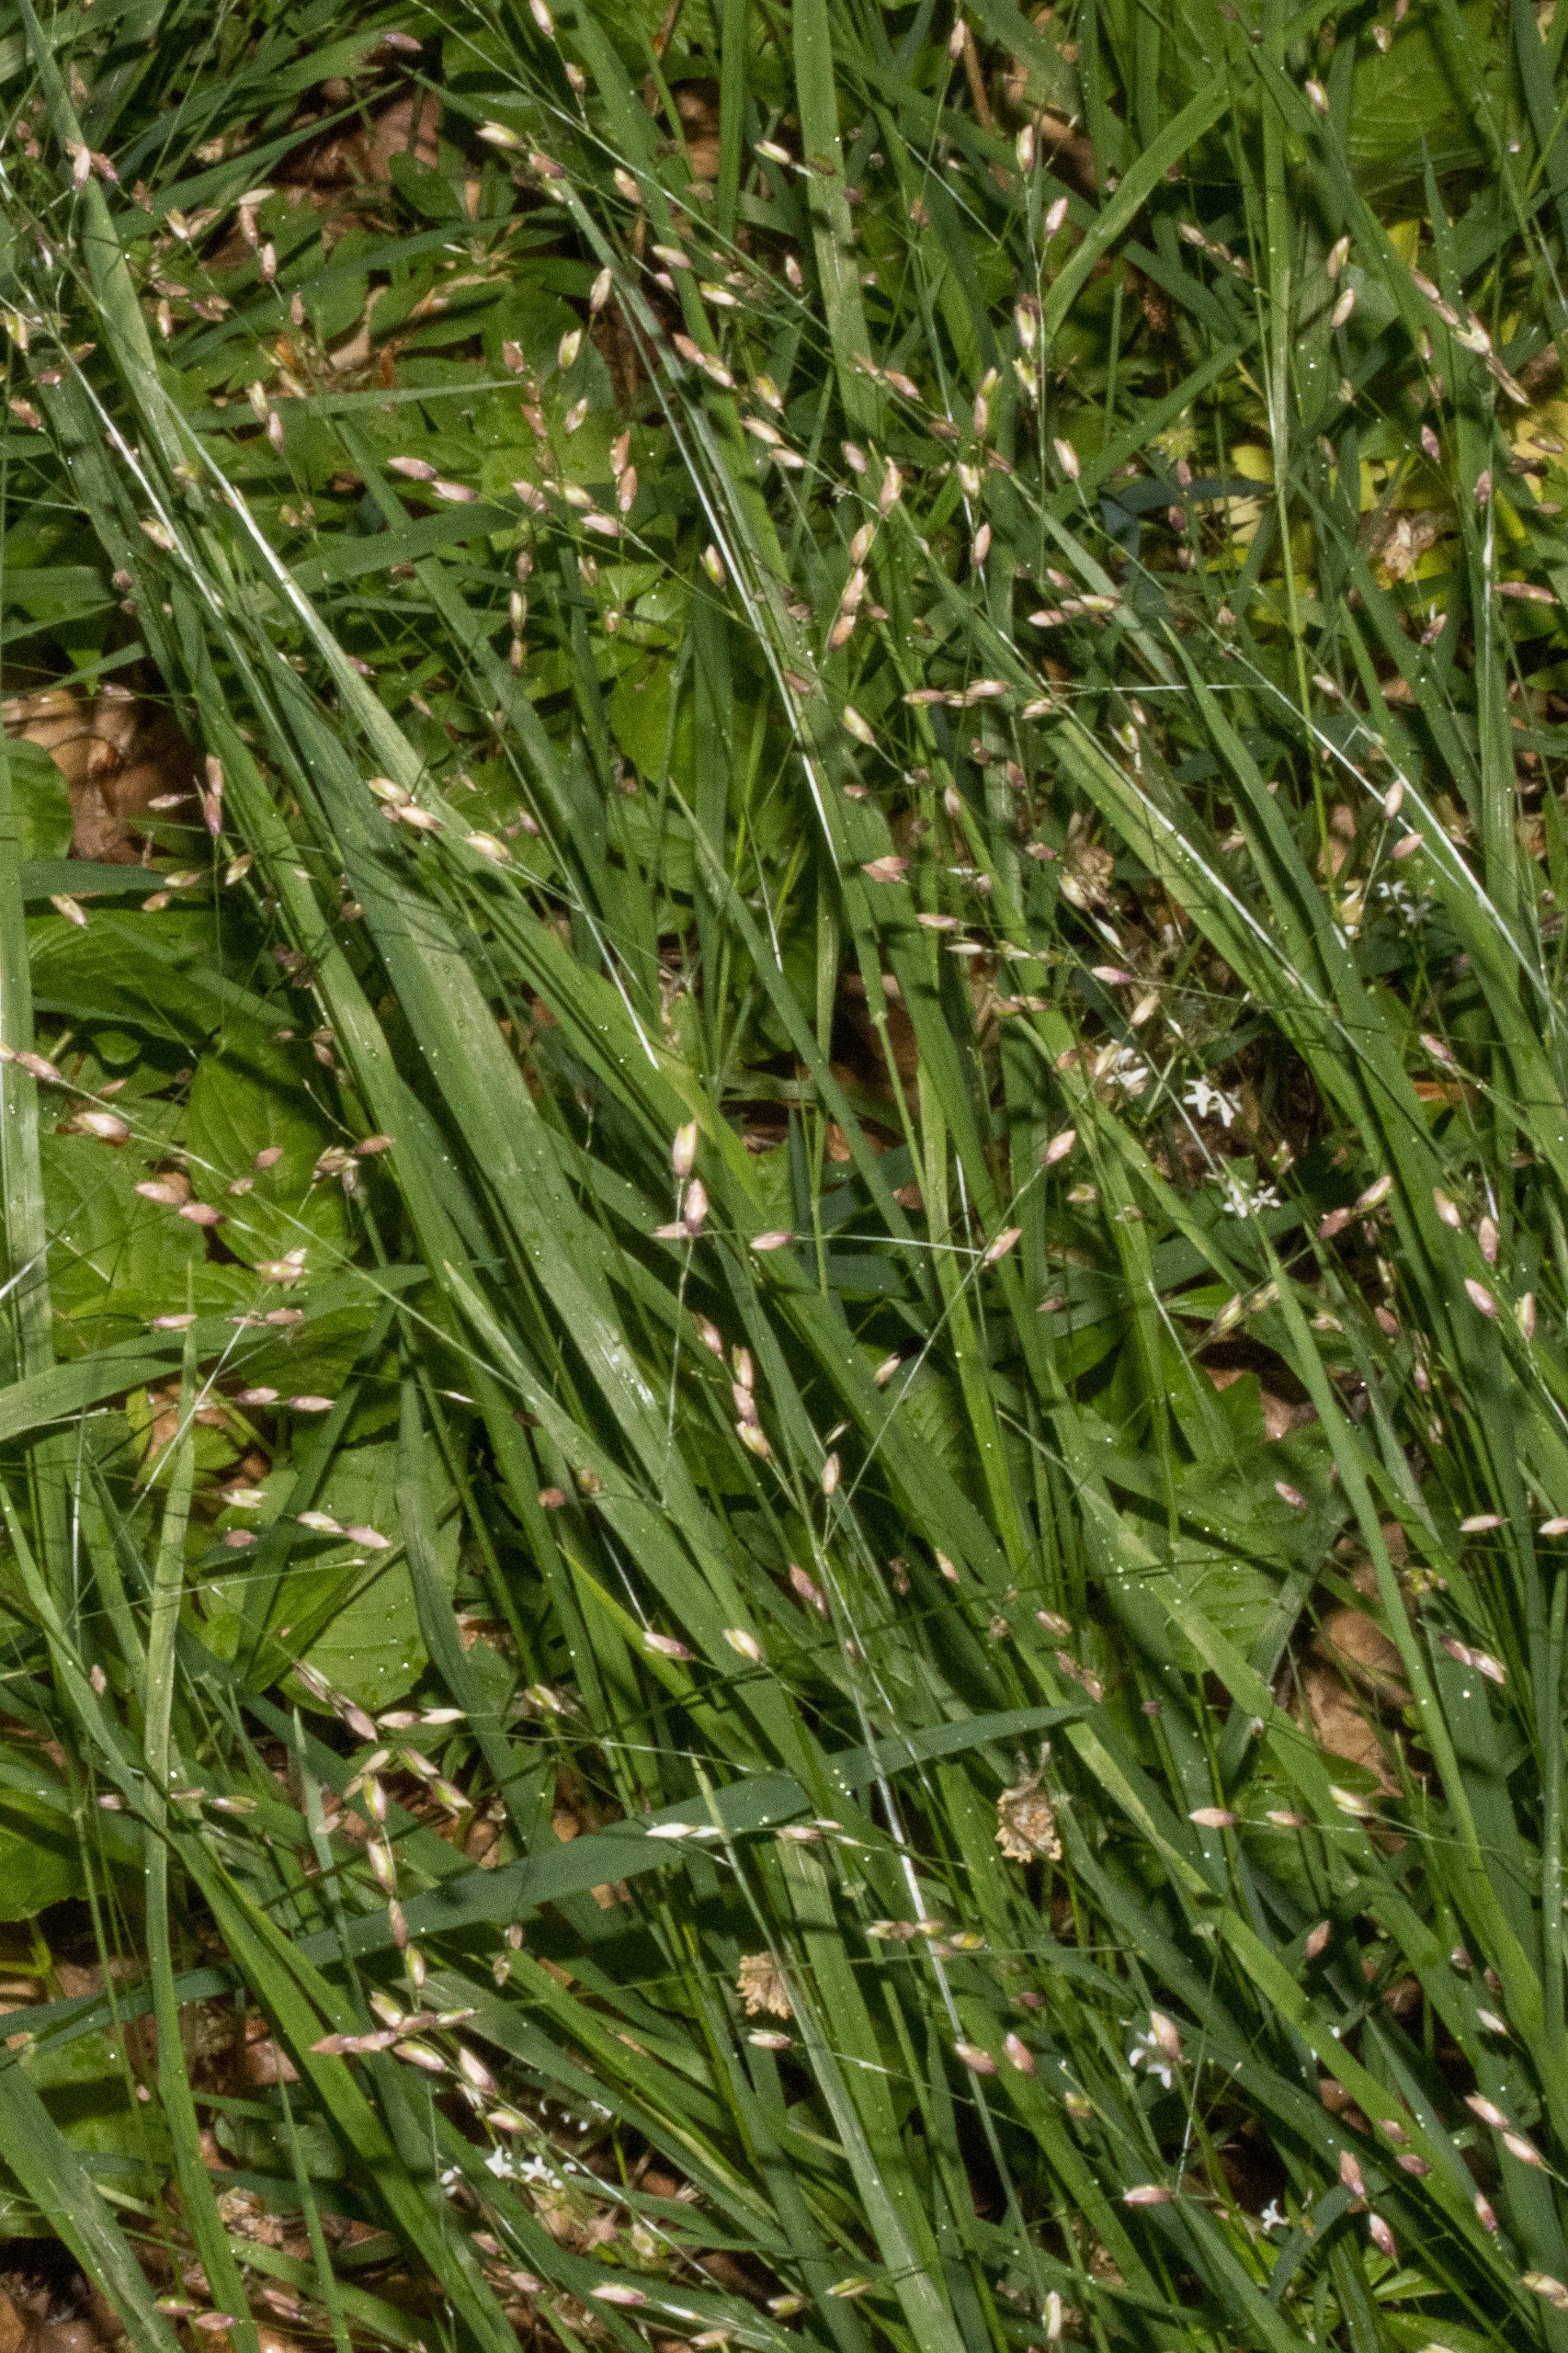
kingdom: Plantae
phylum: Tracheophyta
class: Liliopsida
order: Poales
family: Poaceae
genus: Melica
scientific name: Melica uniflora
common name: Enblomstret flitteraks
